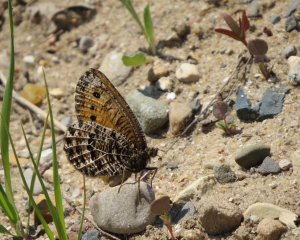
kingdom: Animalia
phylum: Arthropoda
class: Insecta
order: Lepidoptera
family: Nymphalidae
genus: Oeneis
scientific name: Oeneis chryxus
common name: Chryxus Arctic
